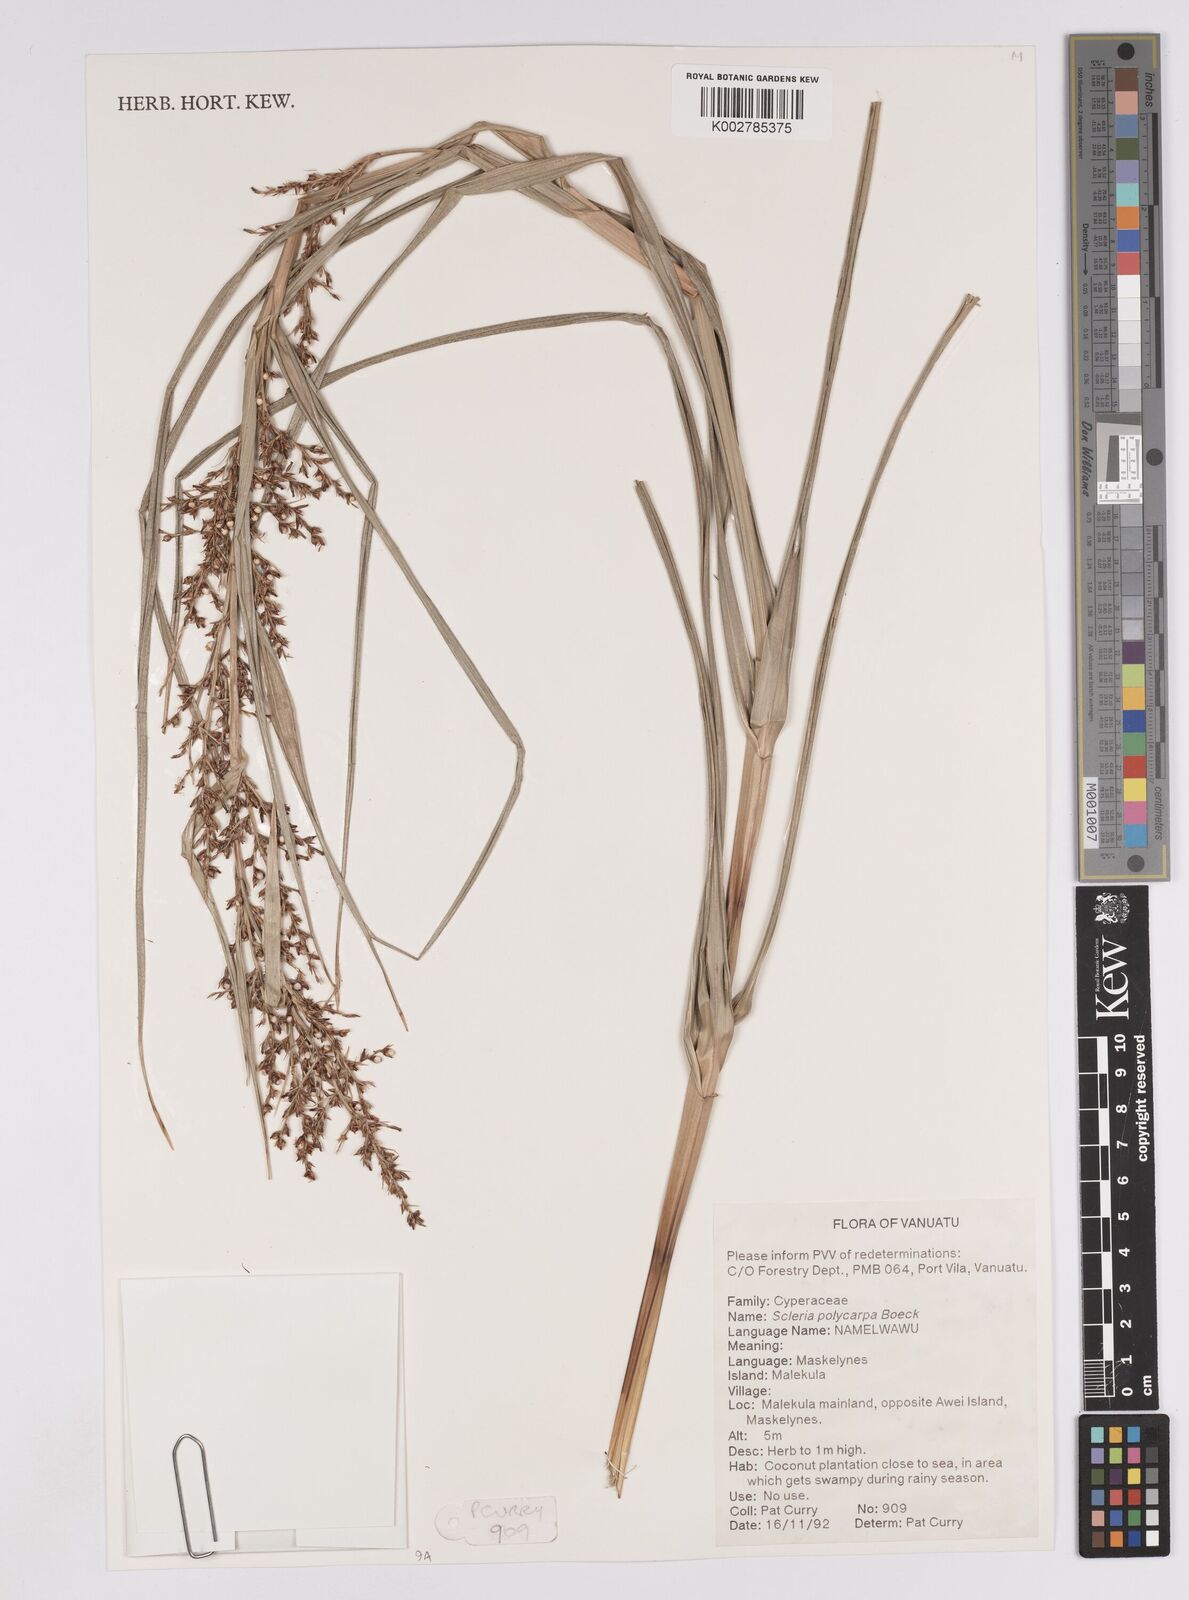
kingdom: Plantae
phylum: Tracheophyta
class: Liliopsida
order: Poales
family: Cyperaceae
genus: Scleria
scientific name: Scleria polycarpa
